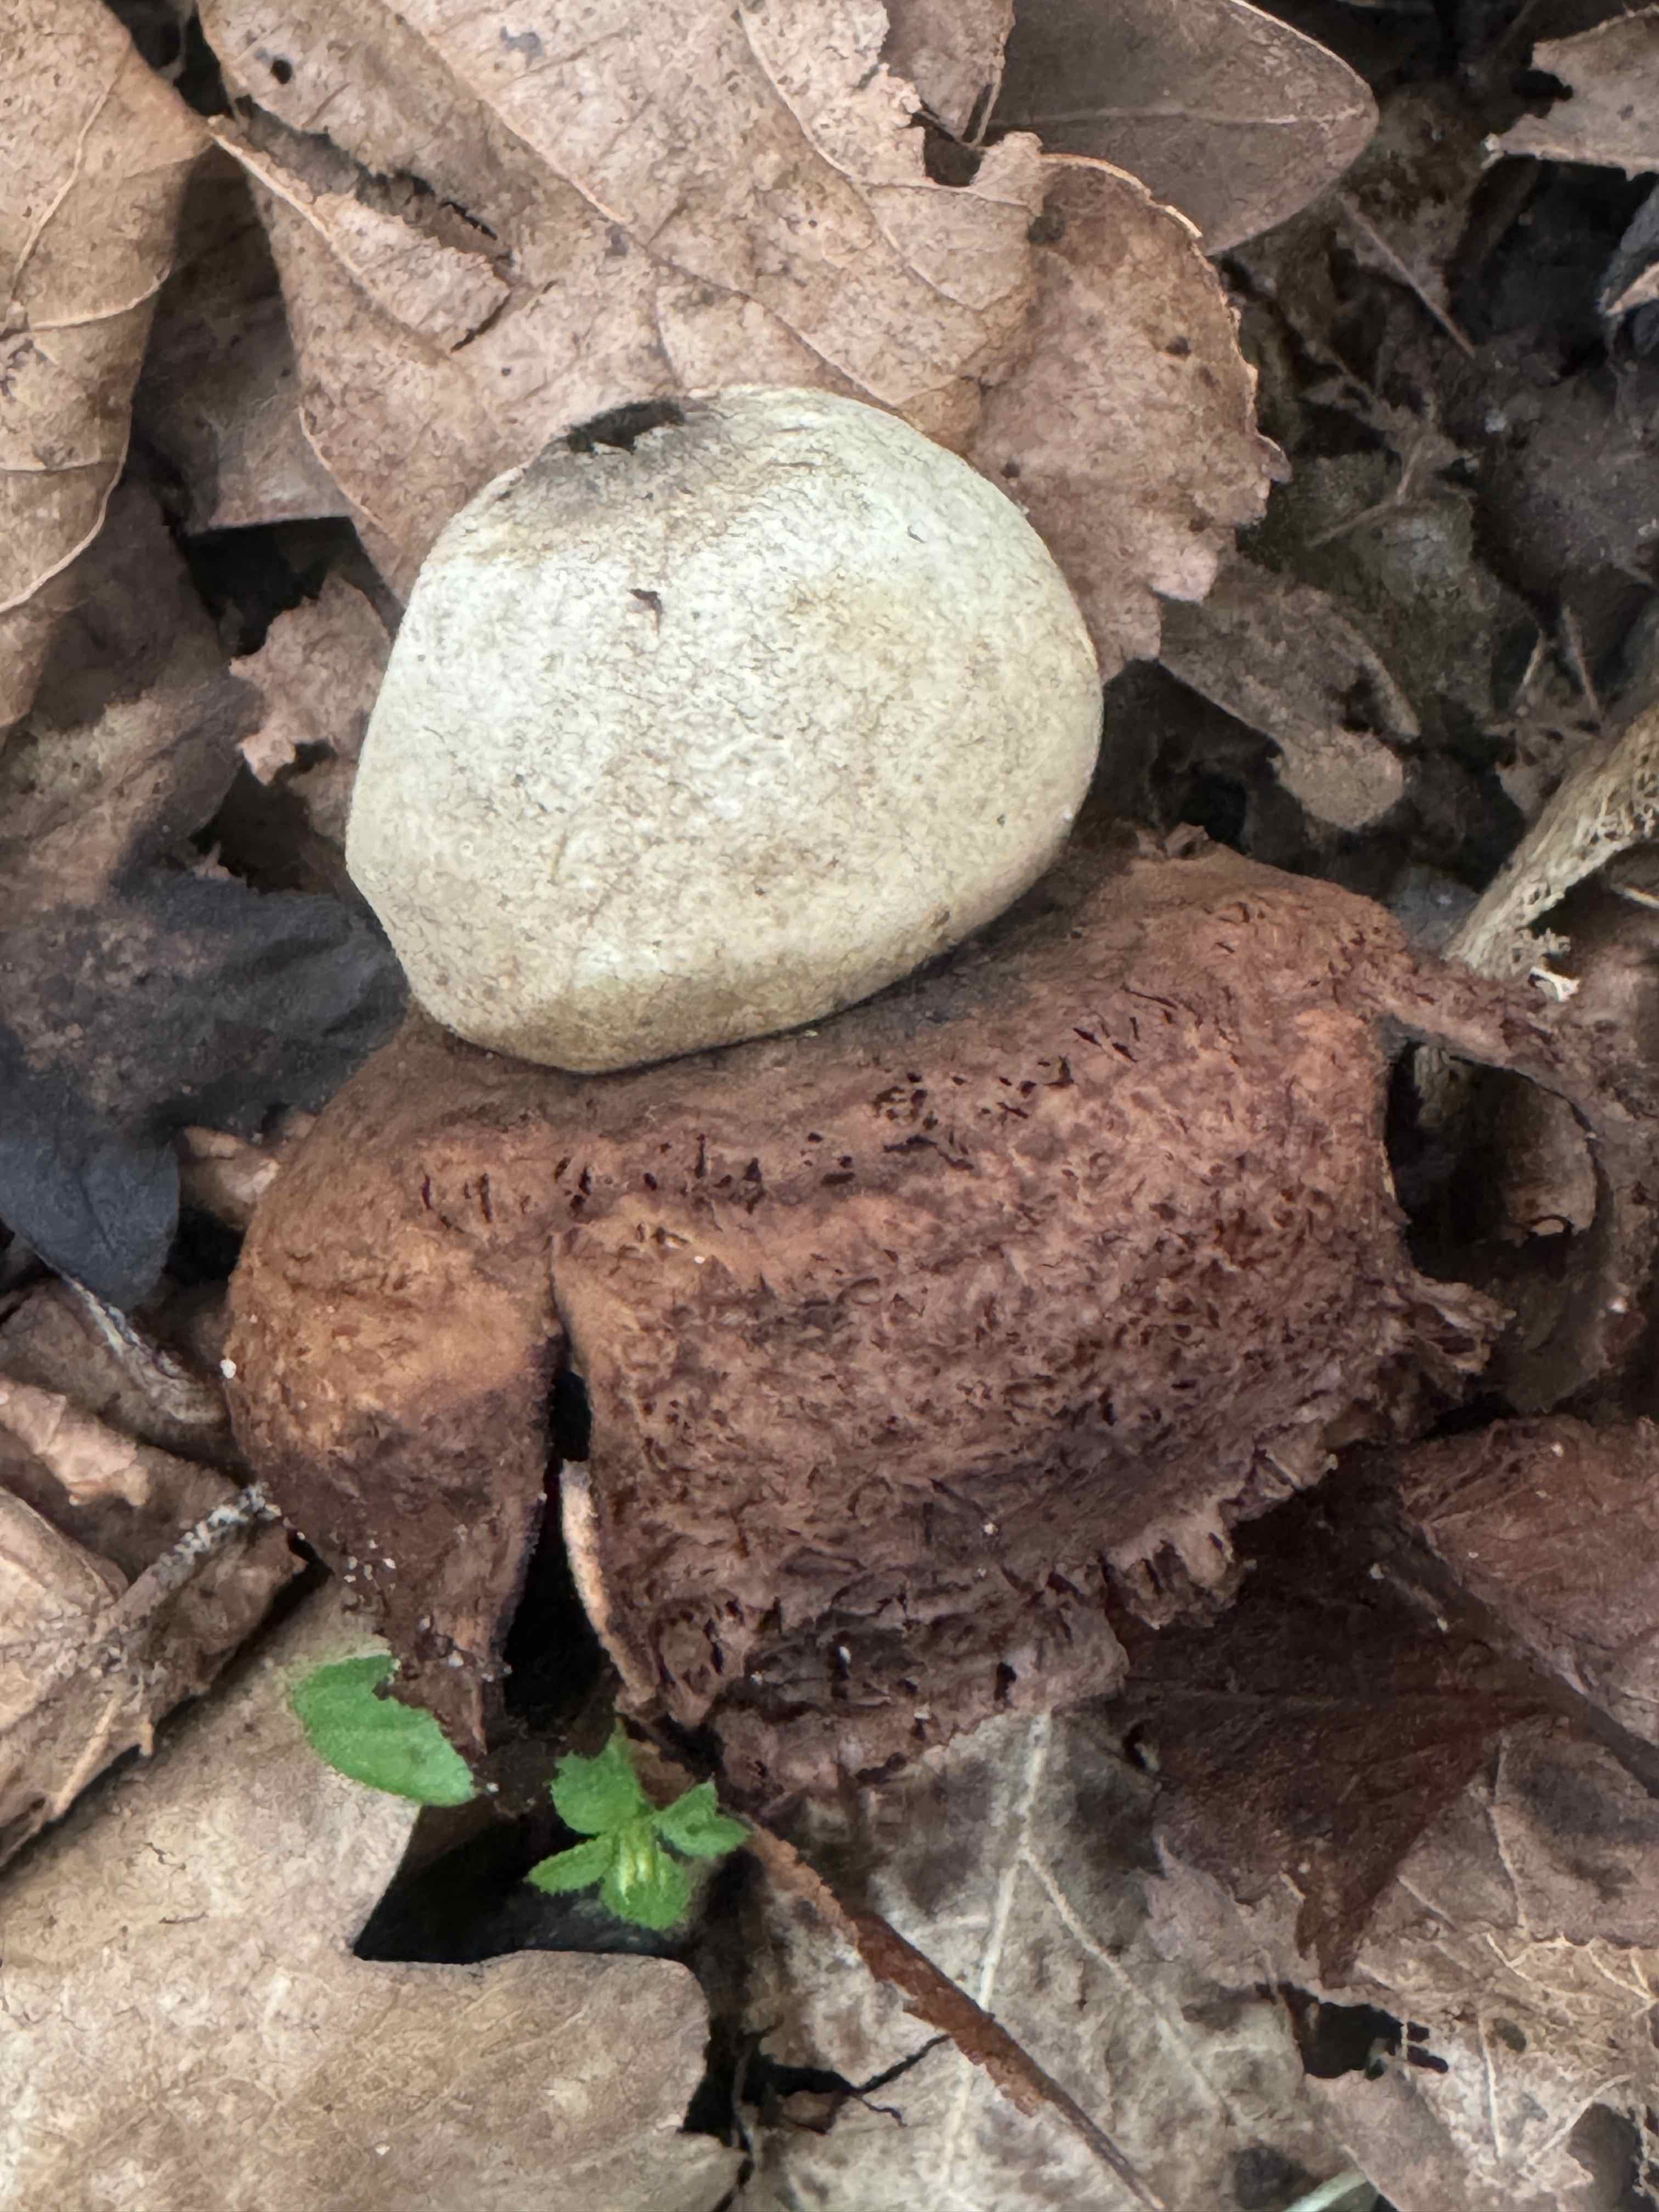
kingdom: Fungi
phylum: Basidiomycota
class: Agaricomycetes
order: Geastrales
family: Geastraceae
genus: Geastrum
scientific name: Geastrum michelianum
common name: kødet stjernebold
